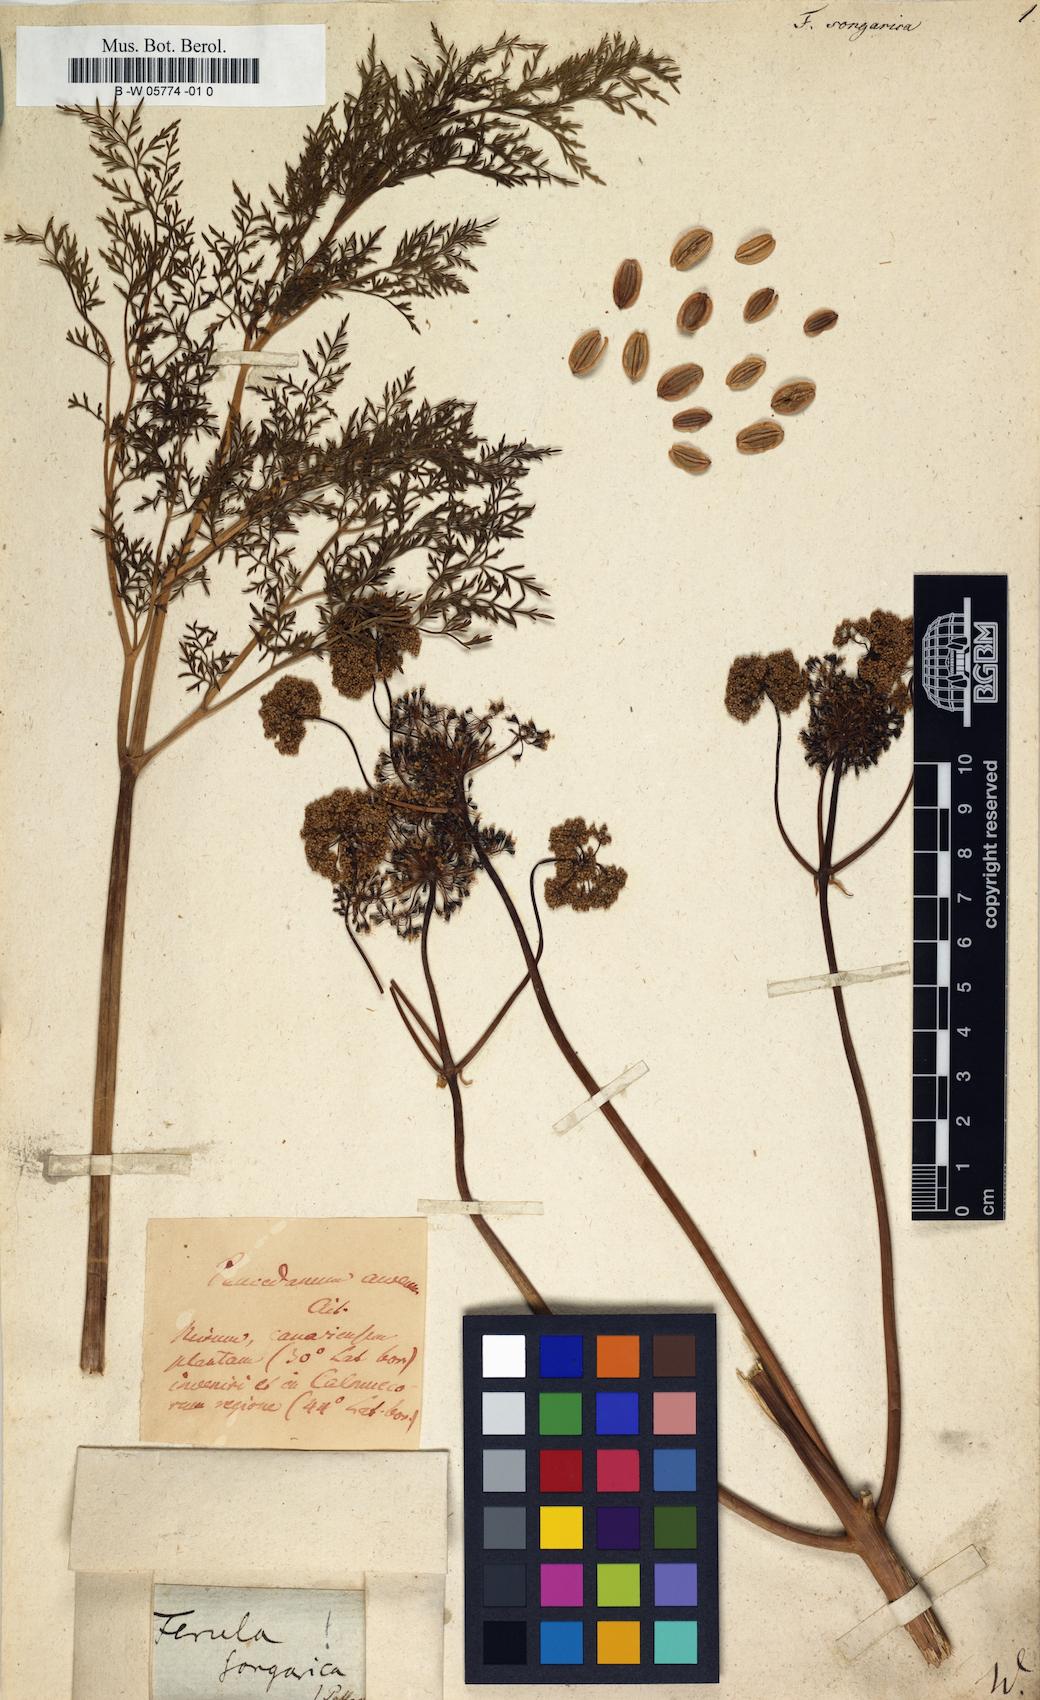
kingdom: Plantae
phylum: Tracheophyta
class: Magnoliopsida
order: Apiales
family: Apiaceae
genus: Ferula
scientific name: Ferula songarica
